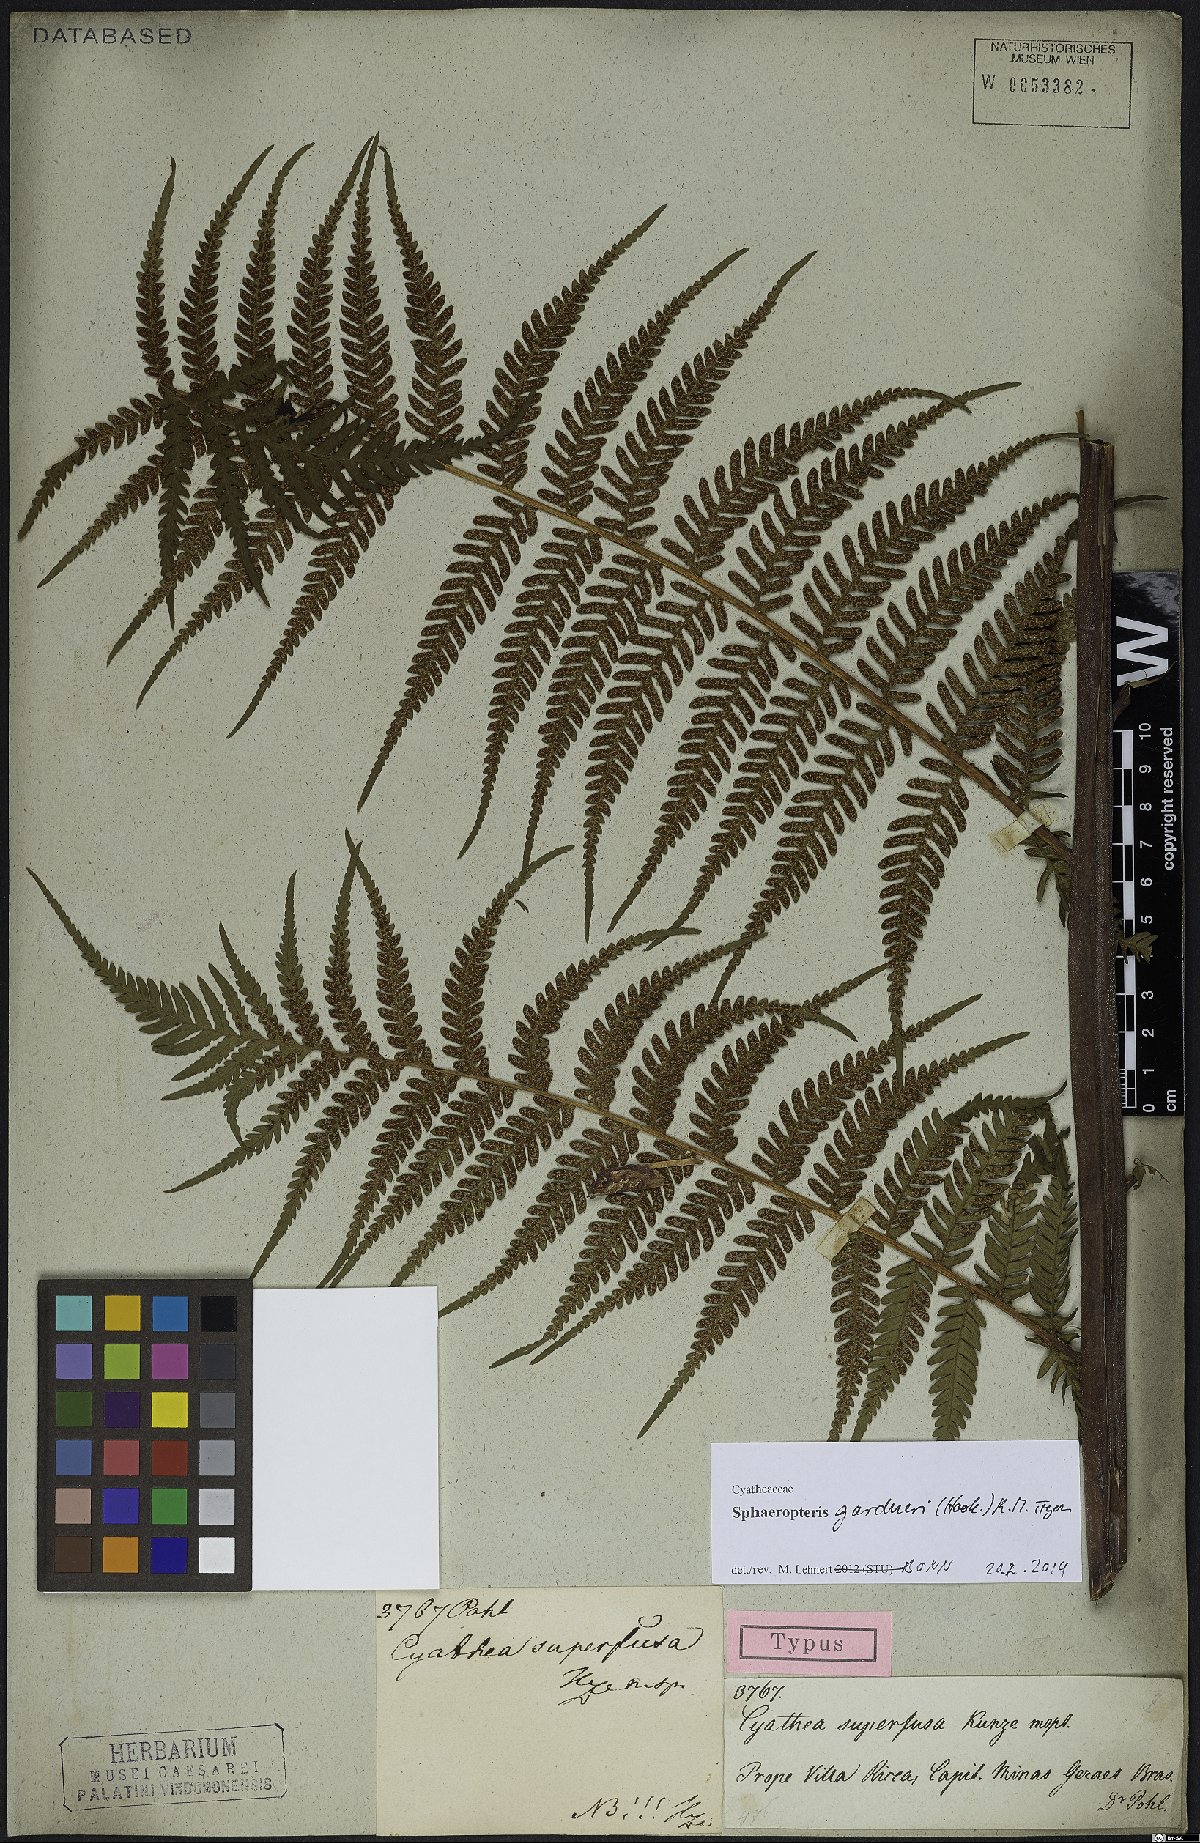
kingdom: Plantae
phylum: Tracheophyta
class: Polypodiopsida
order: Cyatheales
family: Cyatheaceae
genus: Sphaeropteris
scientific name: Sphaeropteris gardneri
